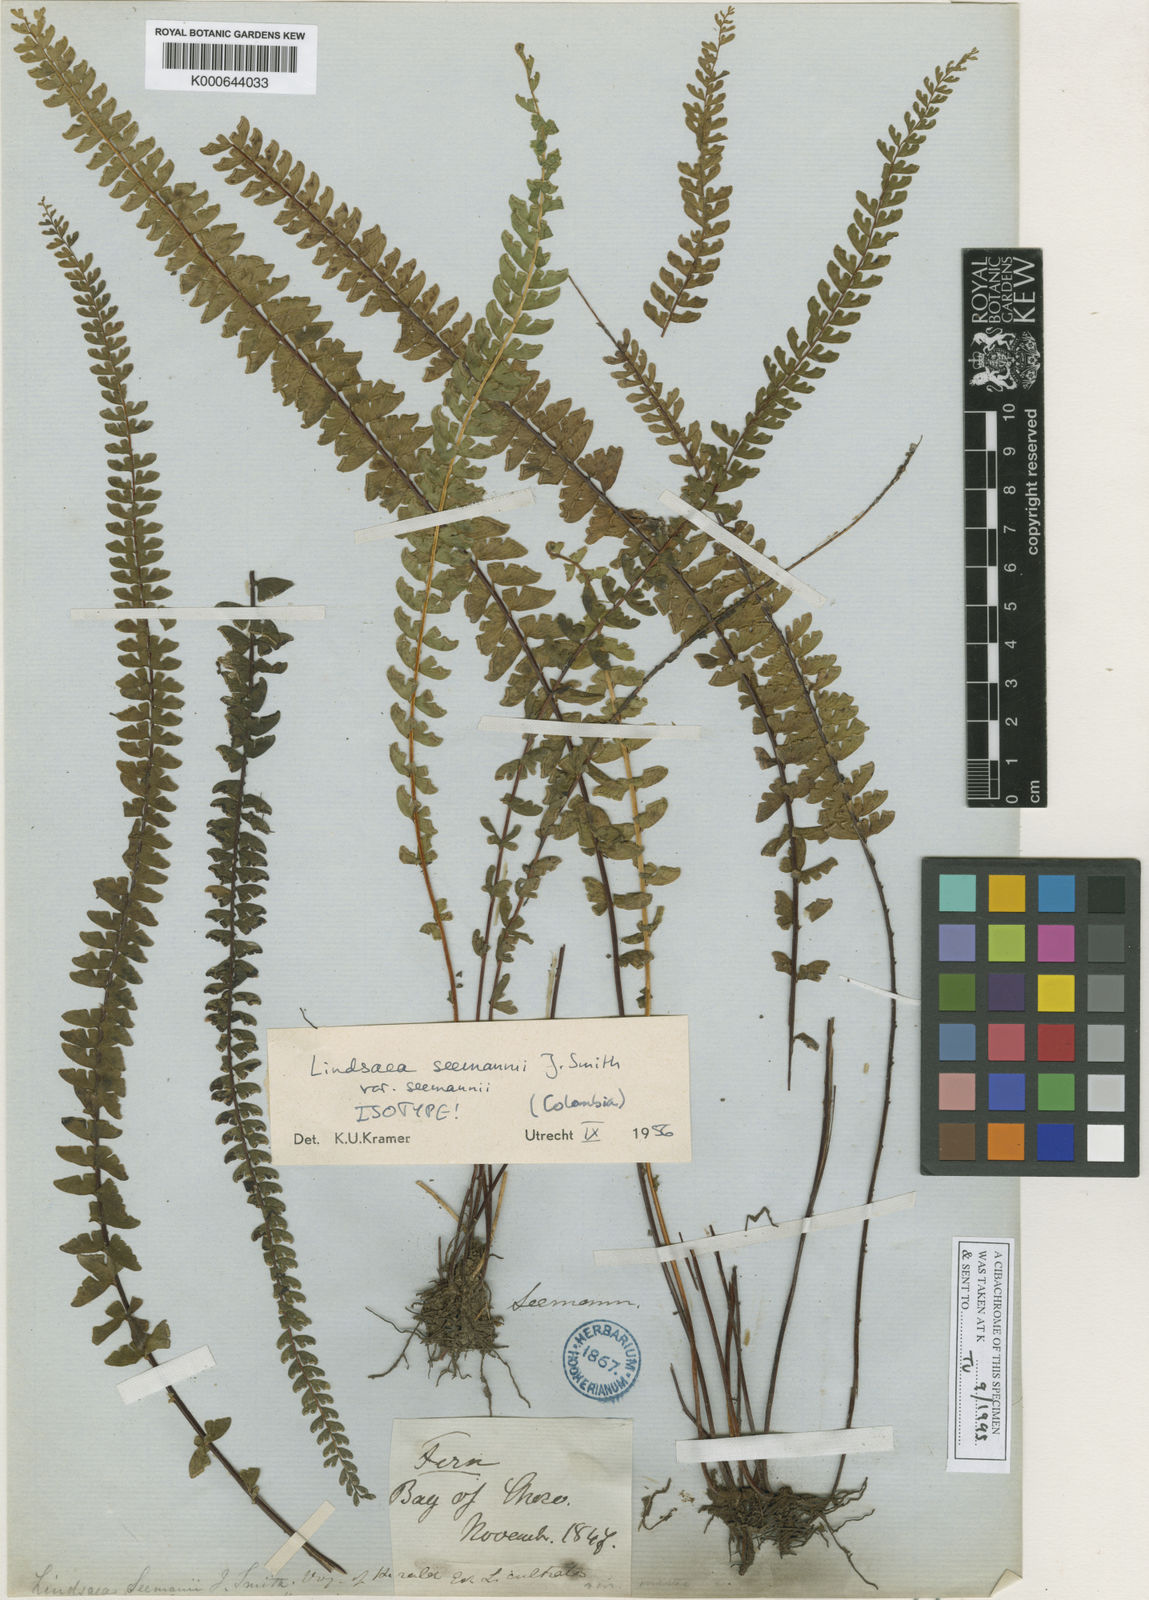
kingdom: Plantae
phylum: Tracheophyta
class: Polypodiopsida
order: Polypodiales
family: Lindsaeaceae
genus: Lindsaea
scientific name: Lindsaea seemannii
